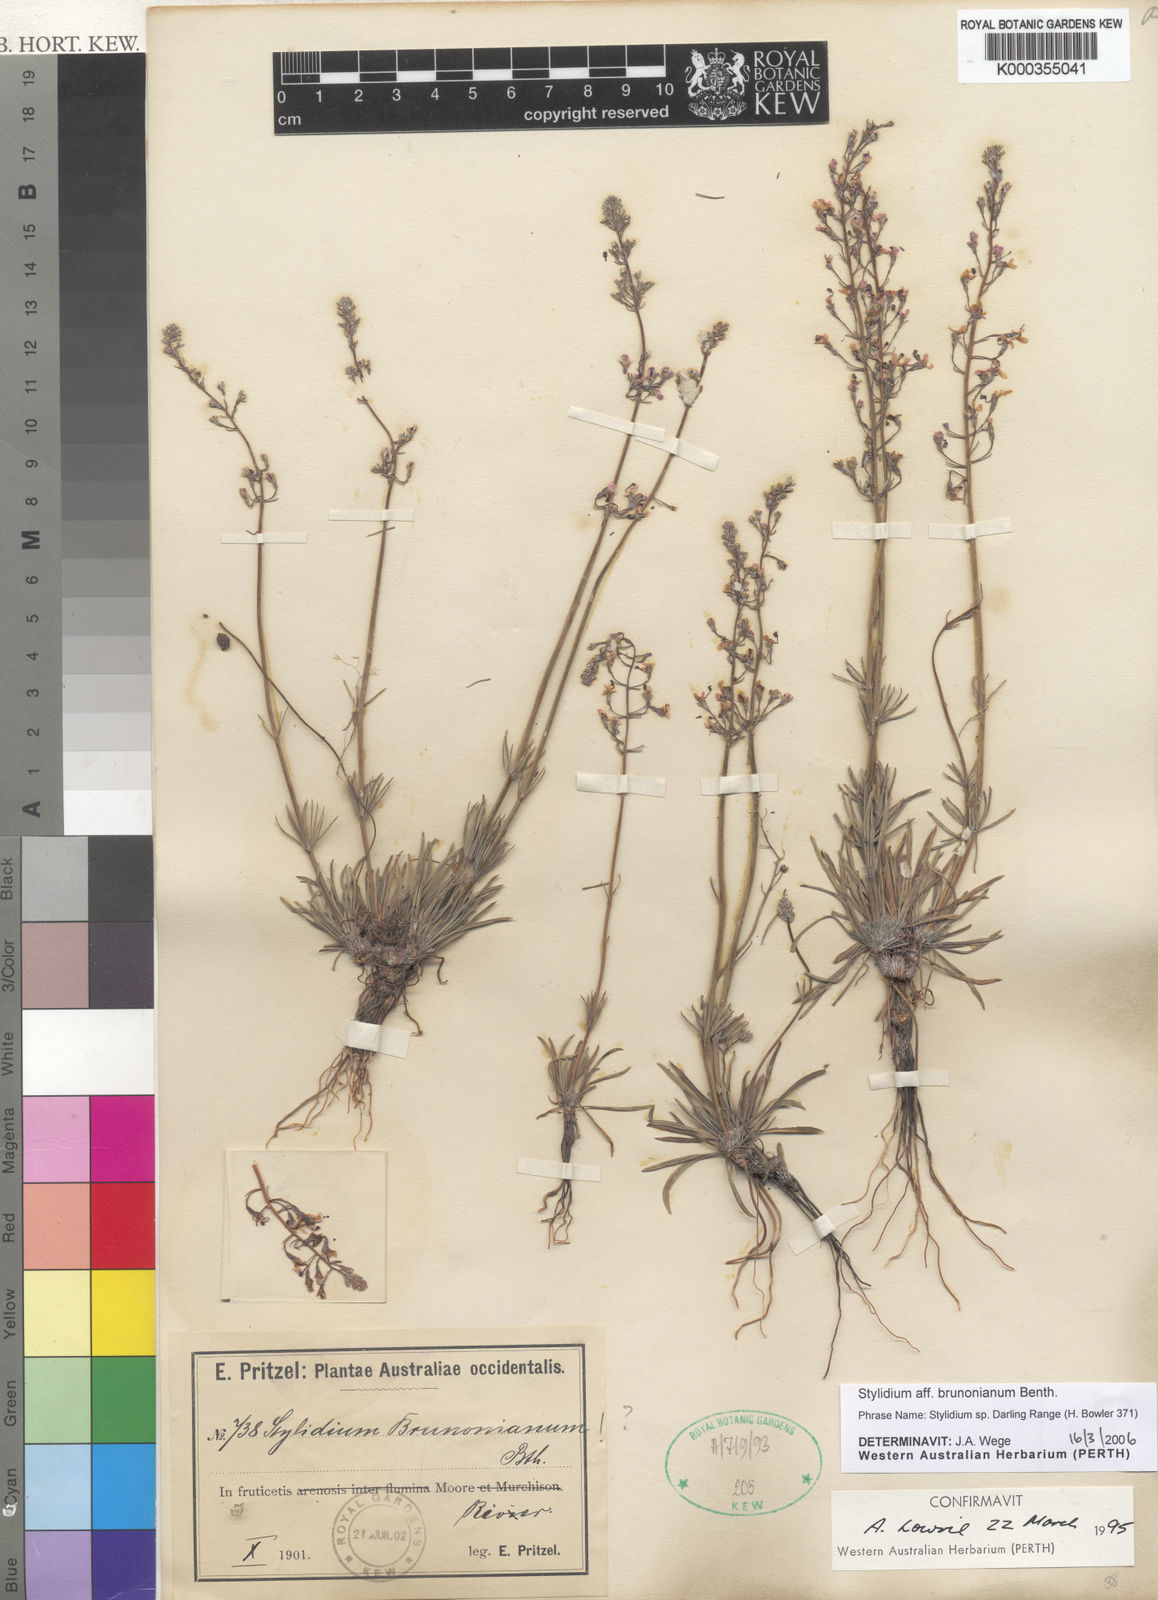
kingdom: Plantae
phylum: Tracheophyta
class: Magnoliopsida
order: Asterales
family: Stylidiaceae
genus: Stylidium
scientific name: Stylidium
